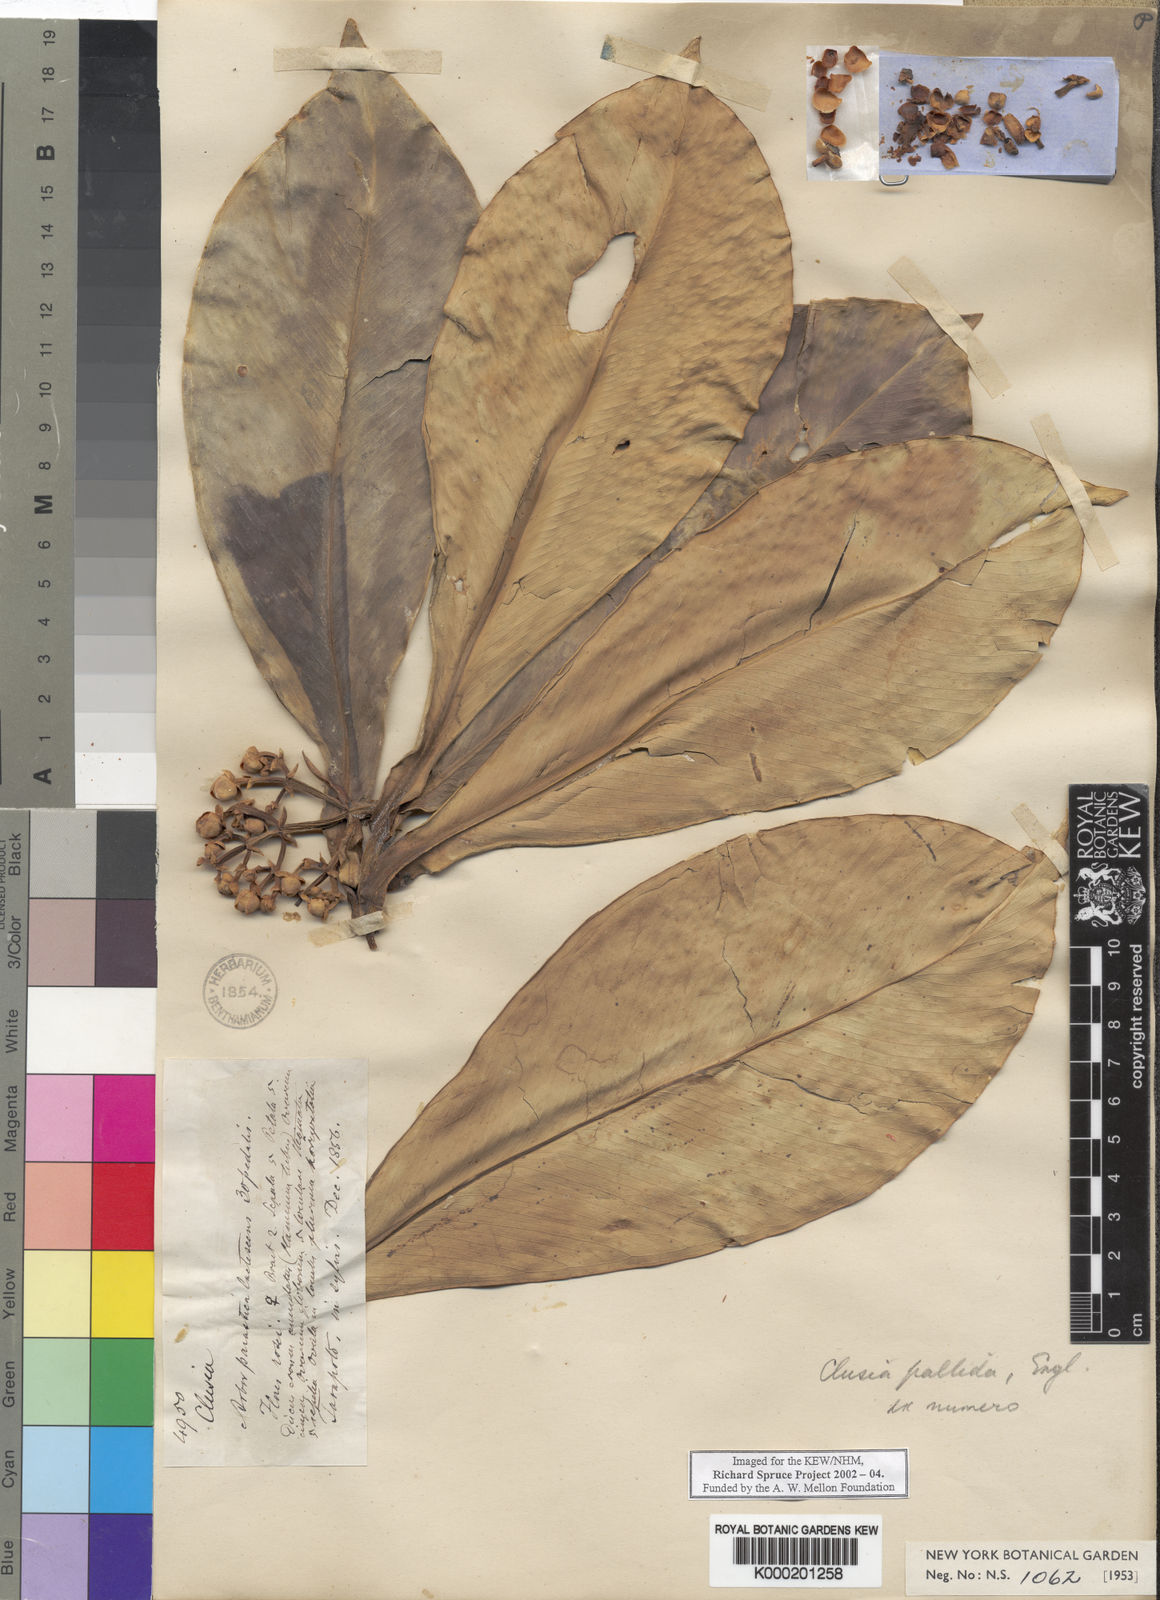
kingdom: Plantae
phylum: Tracheophyta
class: Magnoliopsida
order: Malpighiales
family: Clusiaceae
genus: Clusia
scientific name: Clusia pallida
